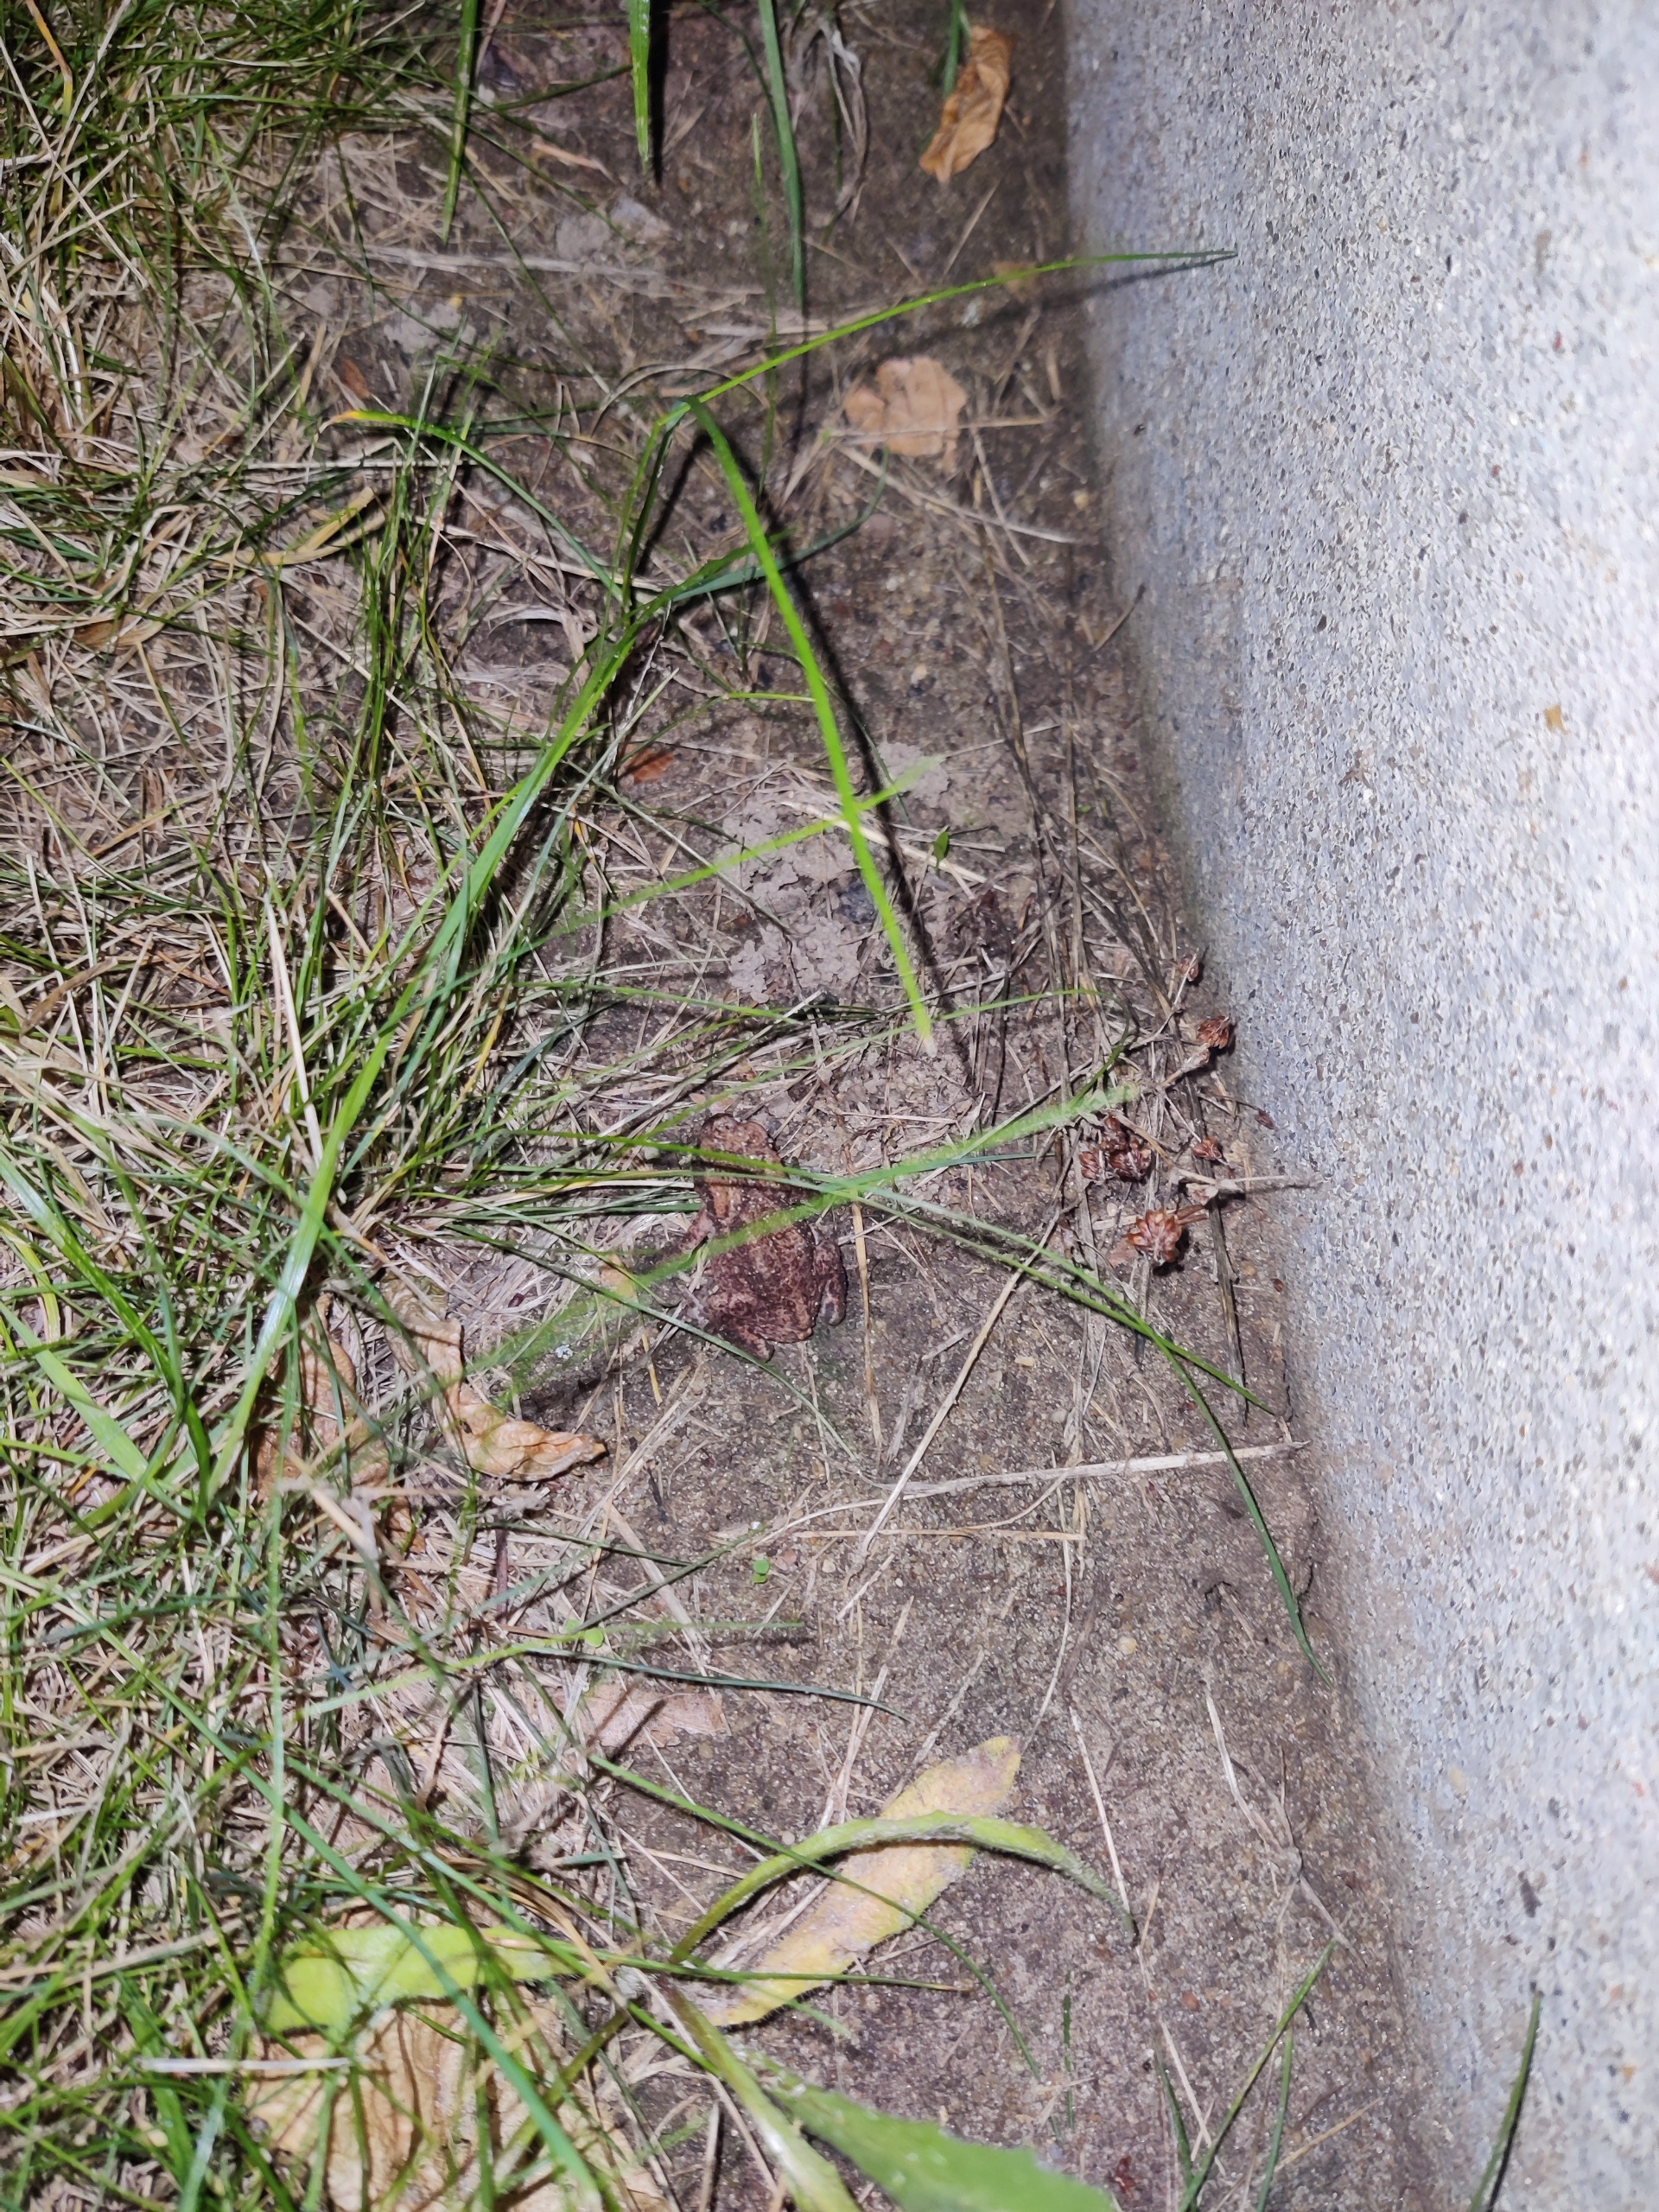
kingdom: Animalia
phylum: Chordata
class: Amphibia
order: Anura
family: Bufonidae
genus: Bufo
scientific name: Bufo bufo
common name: Skrubtudse
